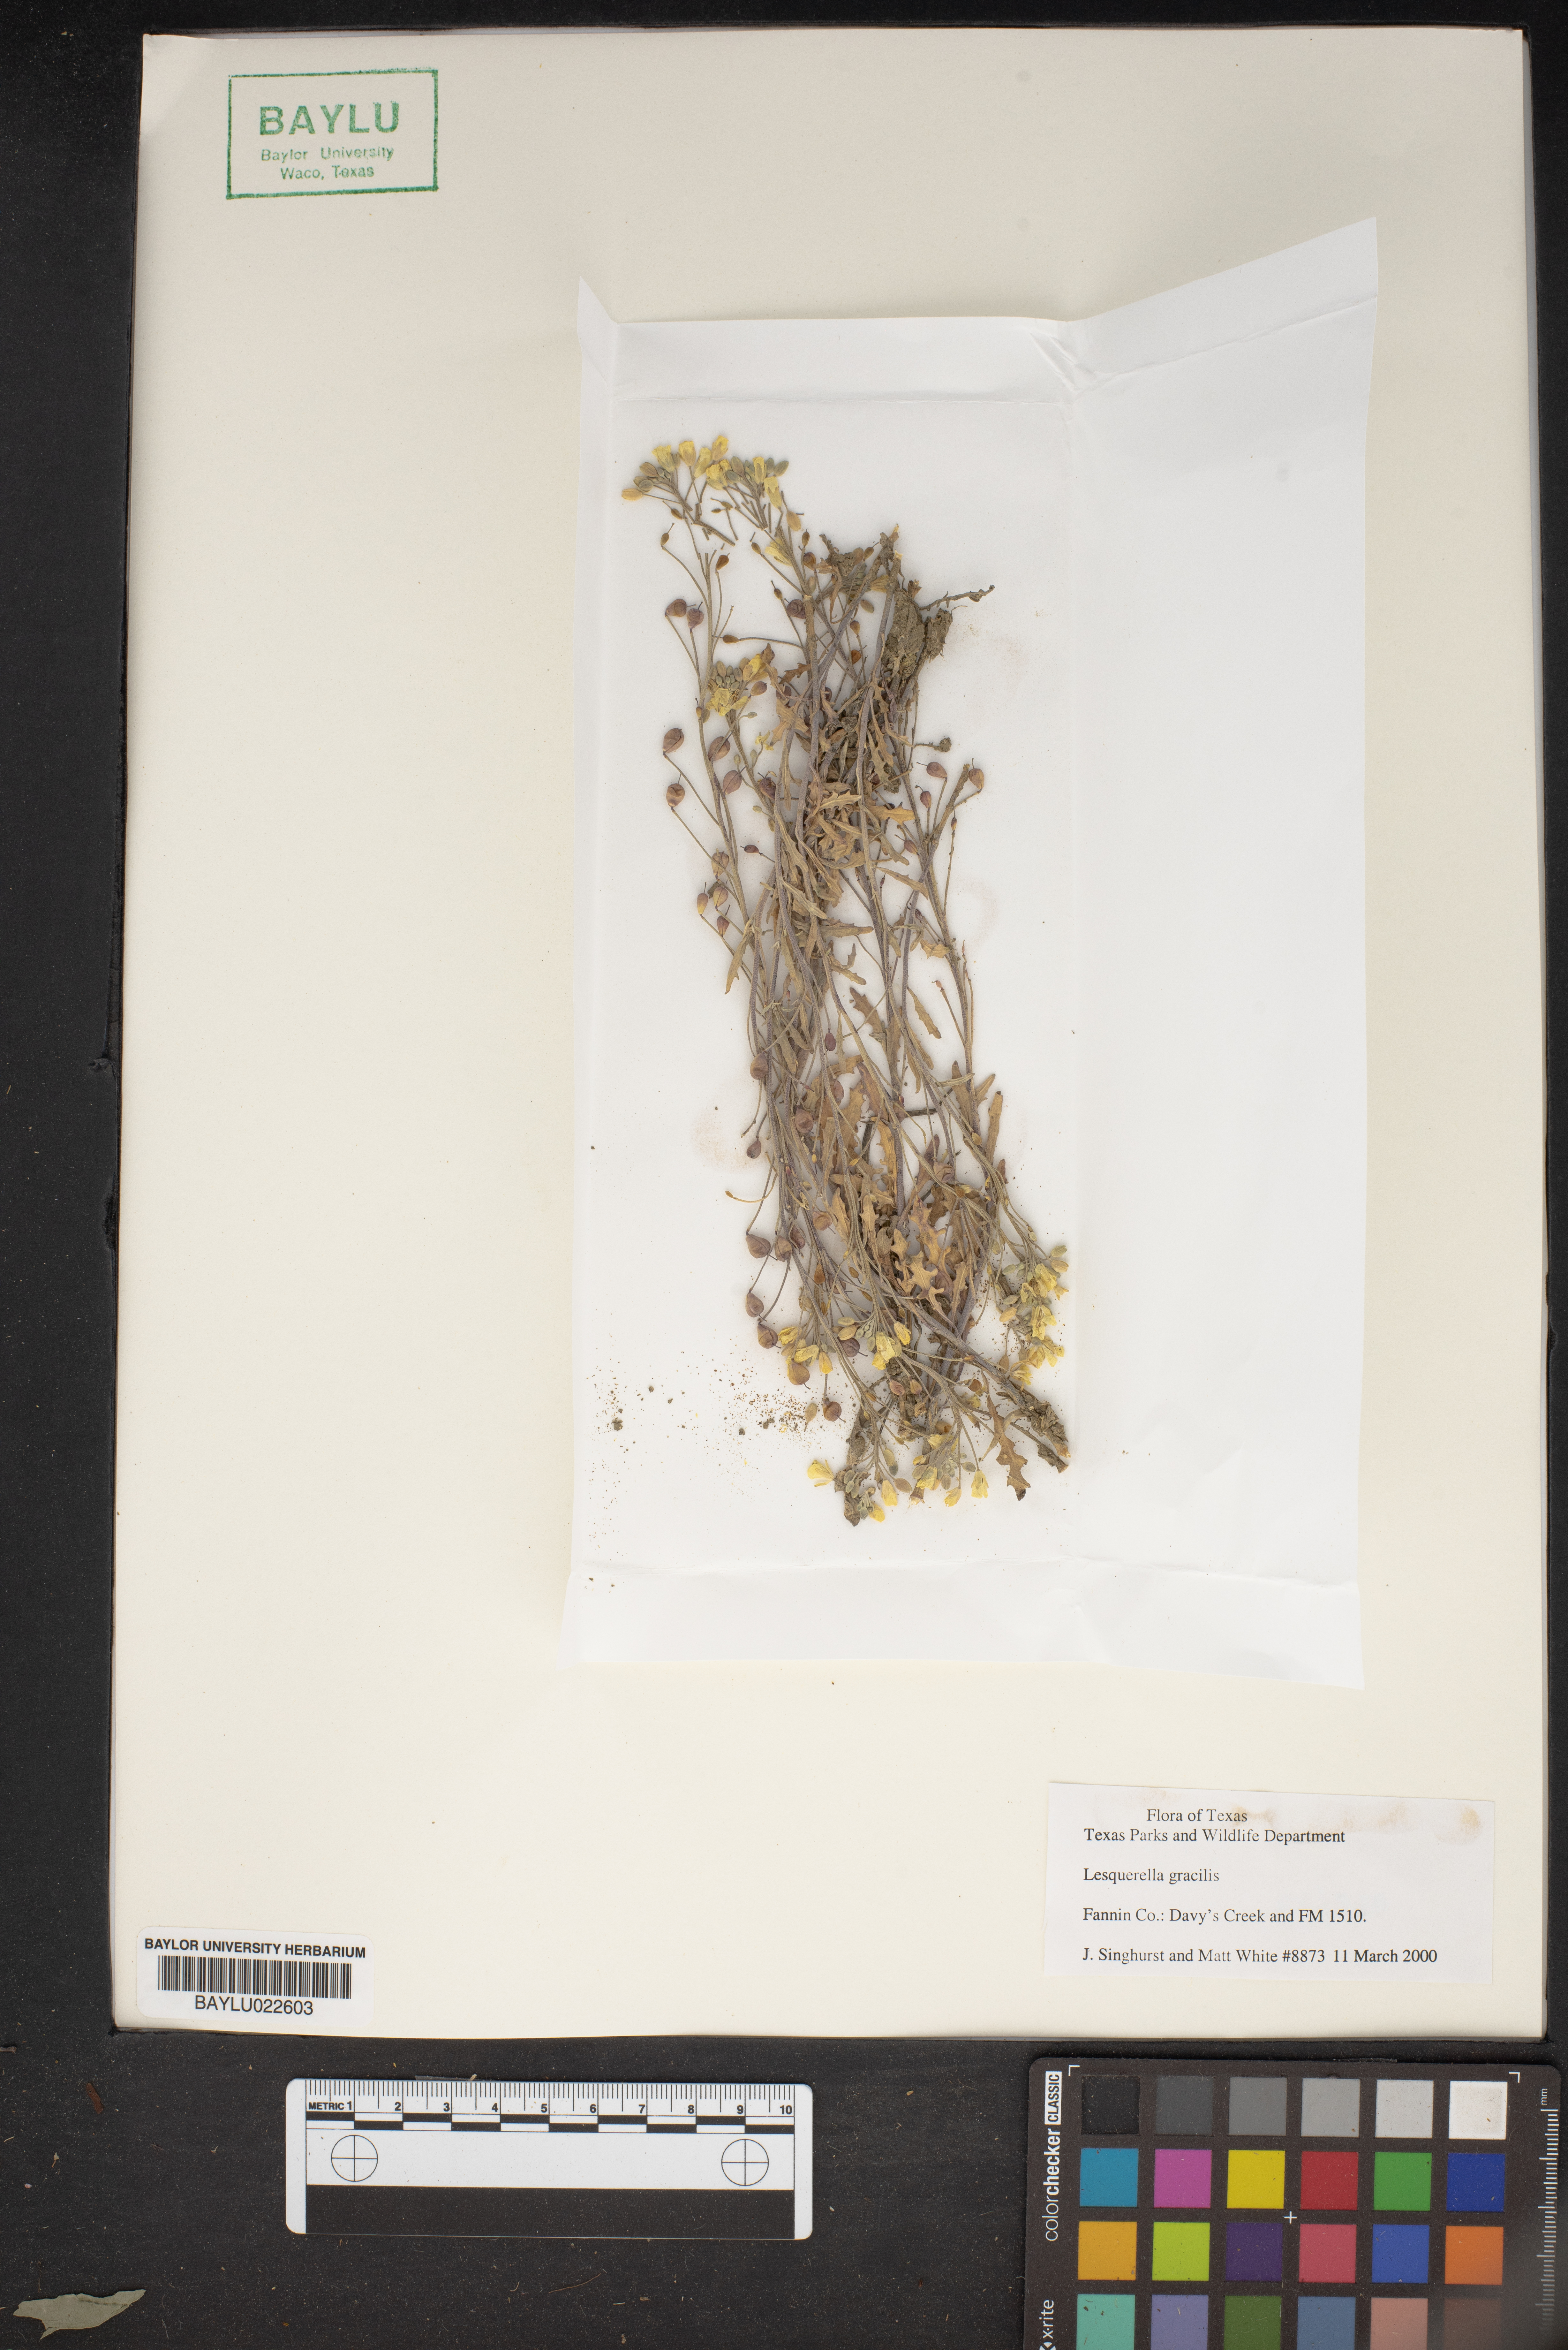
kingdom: Plantae
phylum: Tracheophyta
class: Magnoliopsida
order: Brassicales
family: Brassicaceae
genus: Physaria
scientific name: Physaria gracilis
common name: Spreading bladderpod
